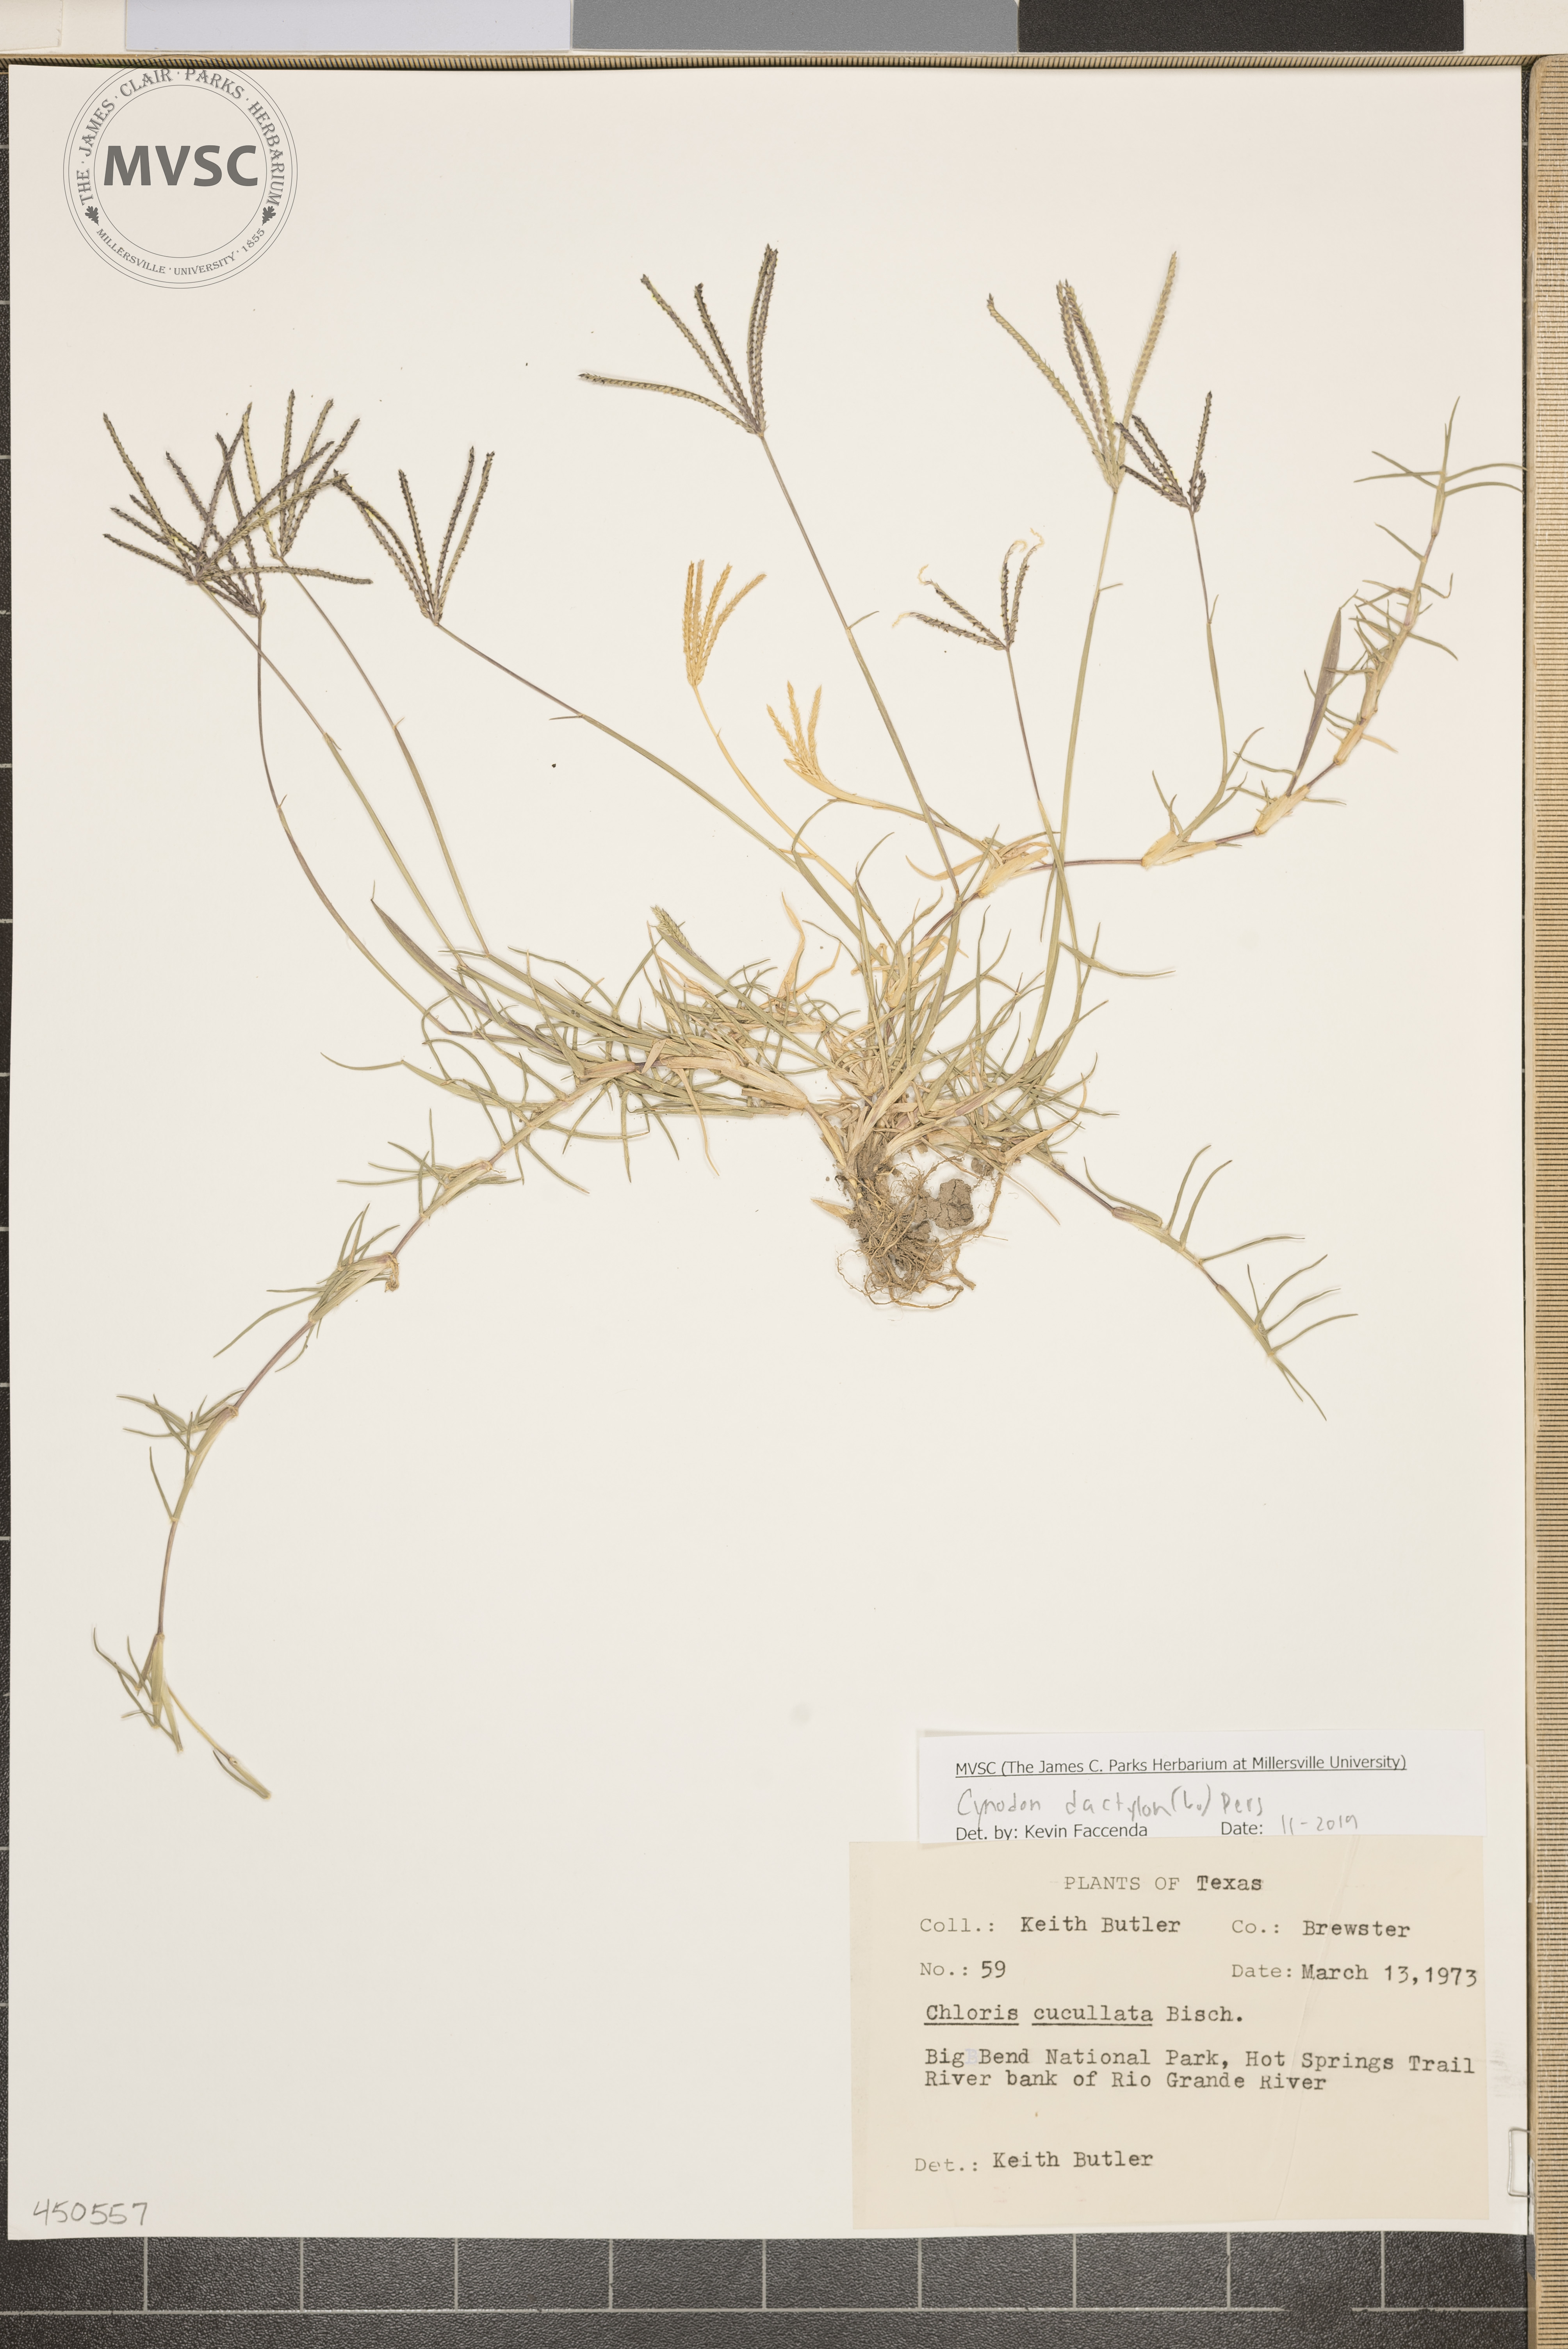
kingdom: Plantae
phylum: Tracheophyta
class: Liliopsida
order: Poales
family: Poaceae
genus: Cynodon
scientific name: Cynodon dactylon
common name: Bermuda grass
